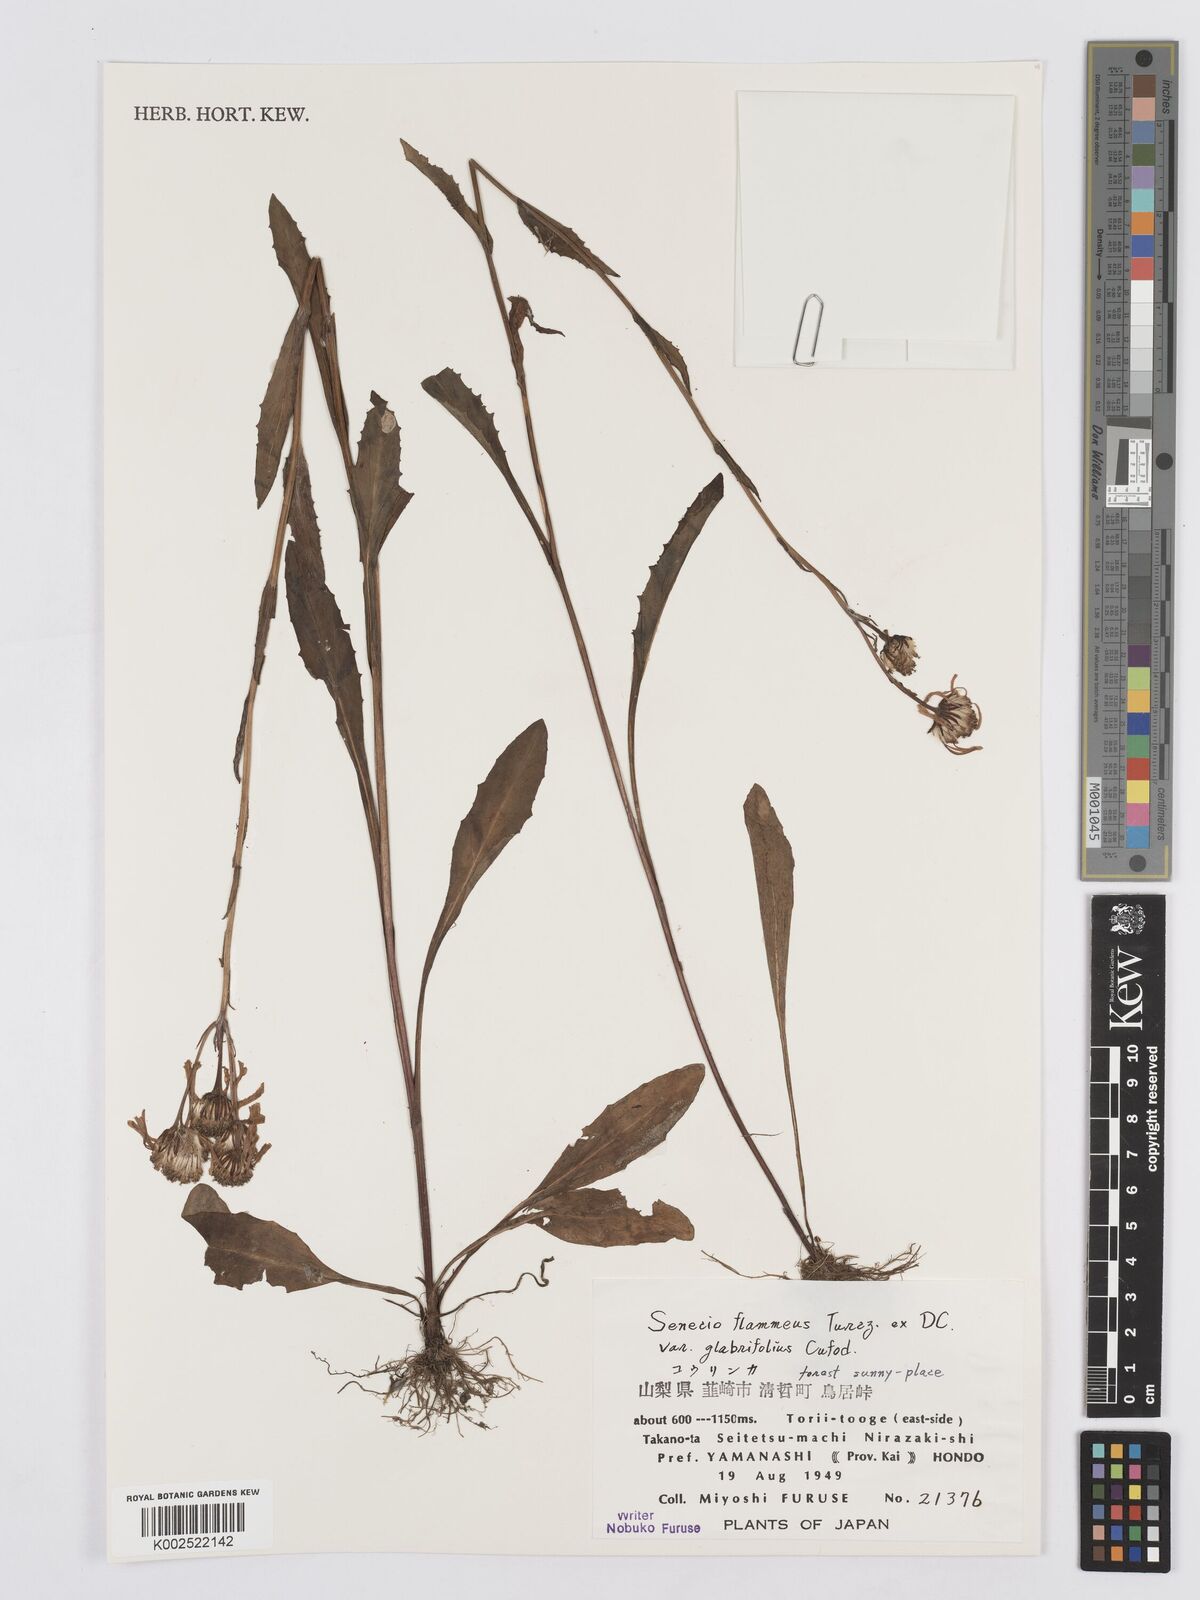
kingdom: Plantae
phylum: Tracheophyta
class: Magnoliopsida
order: Asterales
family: Asteraceae
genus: Tephroseris
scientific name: Tephroseris flammea
